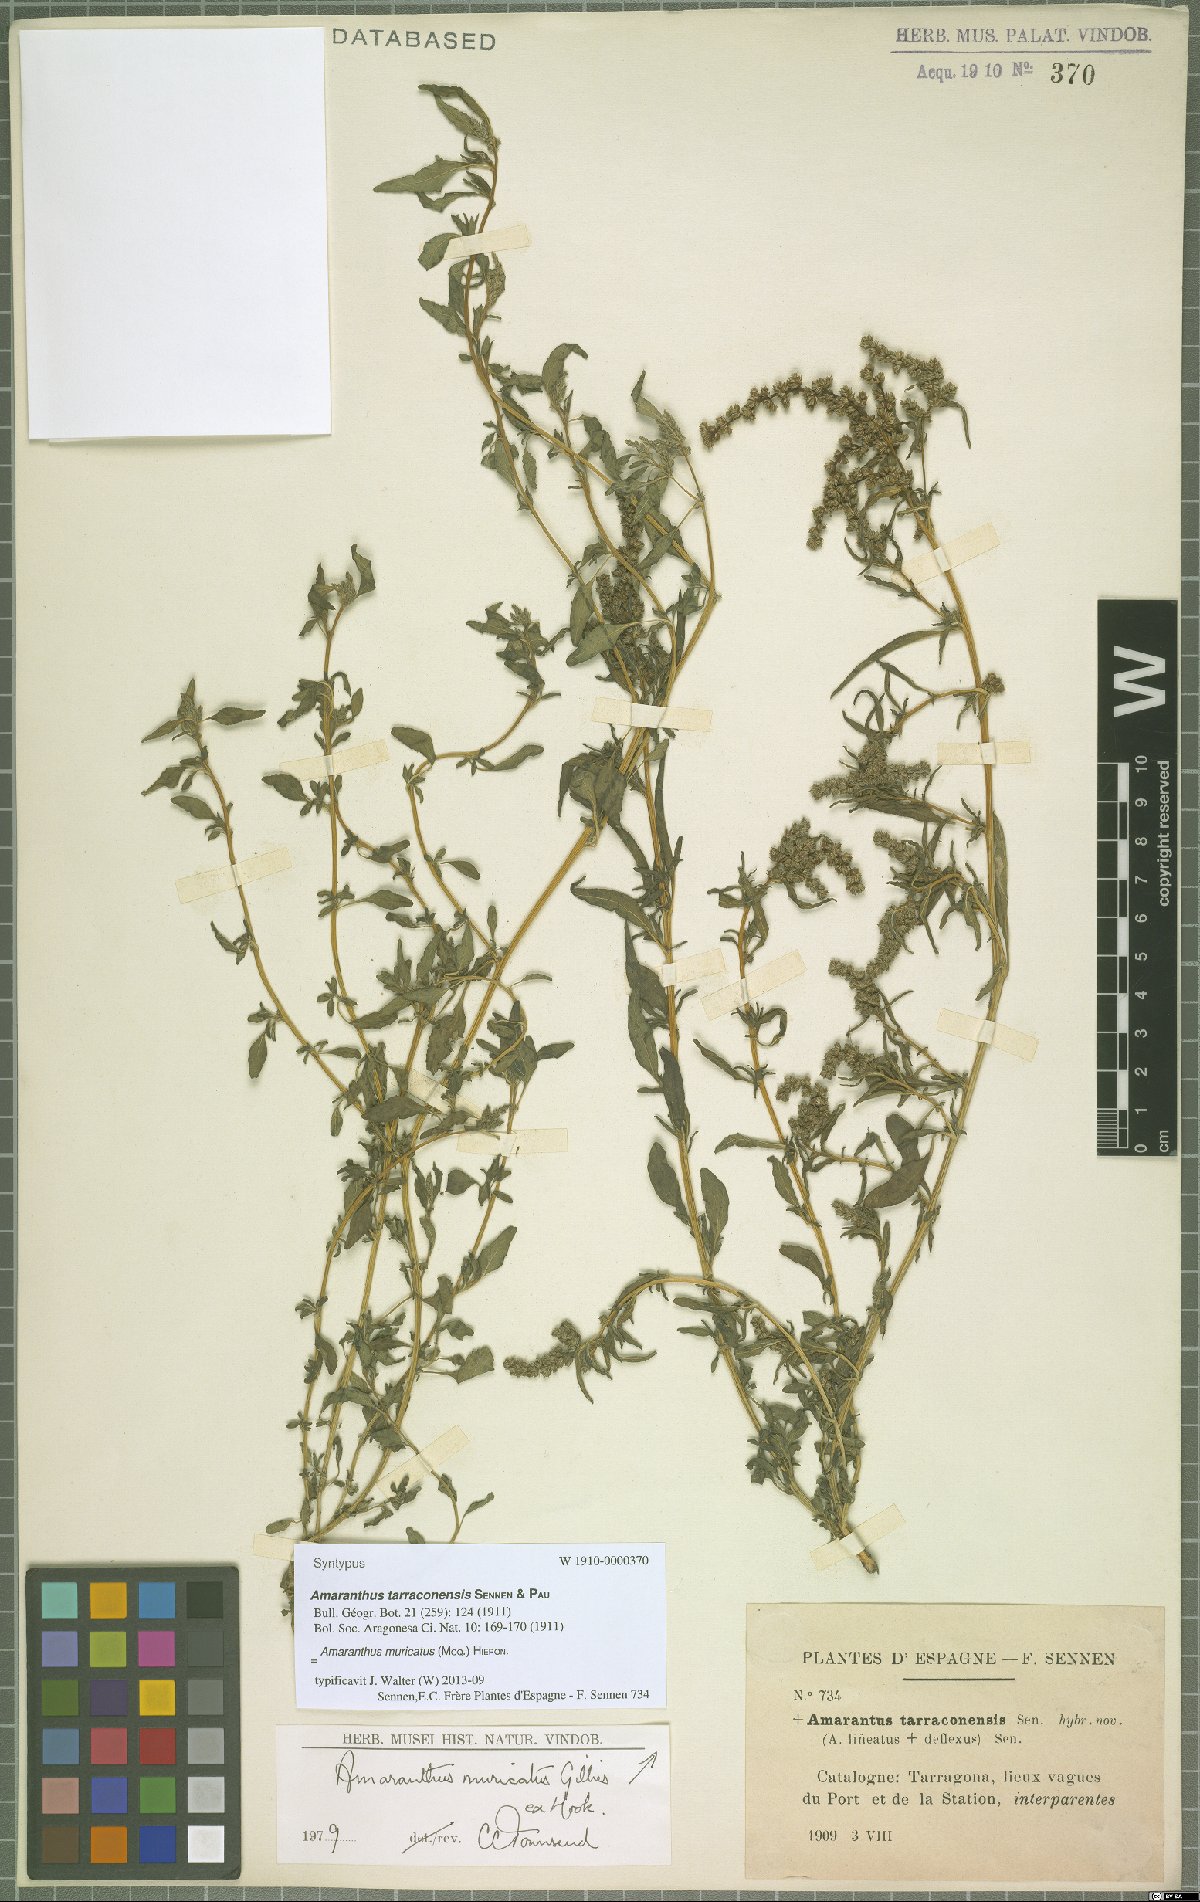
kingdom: Plantae
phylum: Tracheophyta
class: Magnoliopsida
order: Caryophyllales
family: Amaranthaceae
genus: Amaranthus
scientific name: Amaranthus muricatus
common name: African amaranth
